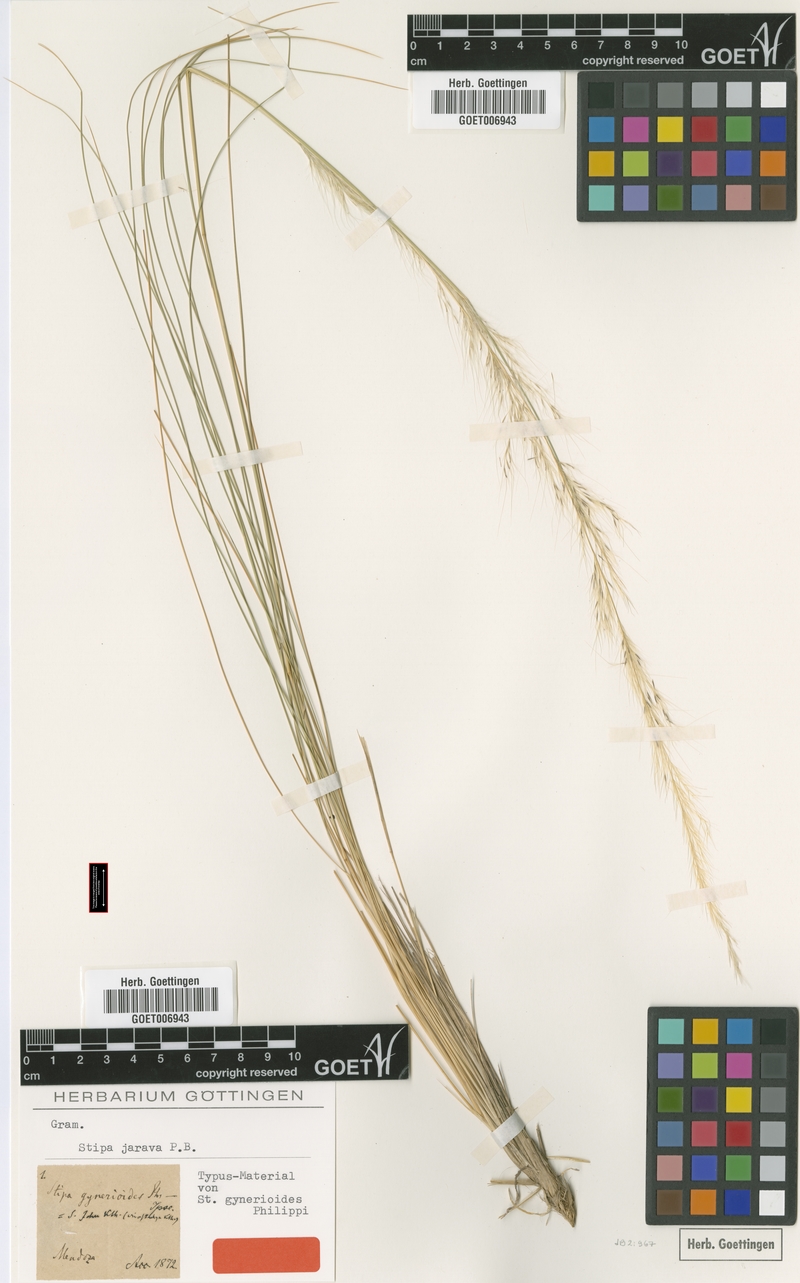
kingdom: Plantae
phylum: Tracheophyta
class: Liliopsida
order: Poales
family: Poaceae
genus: Jarava
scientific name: Jarava ichu
